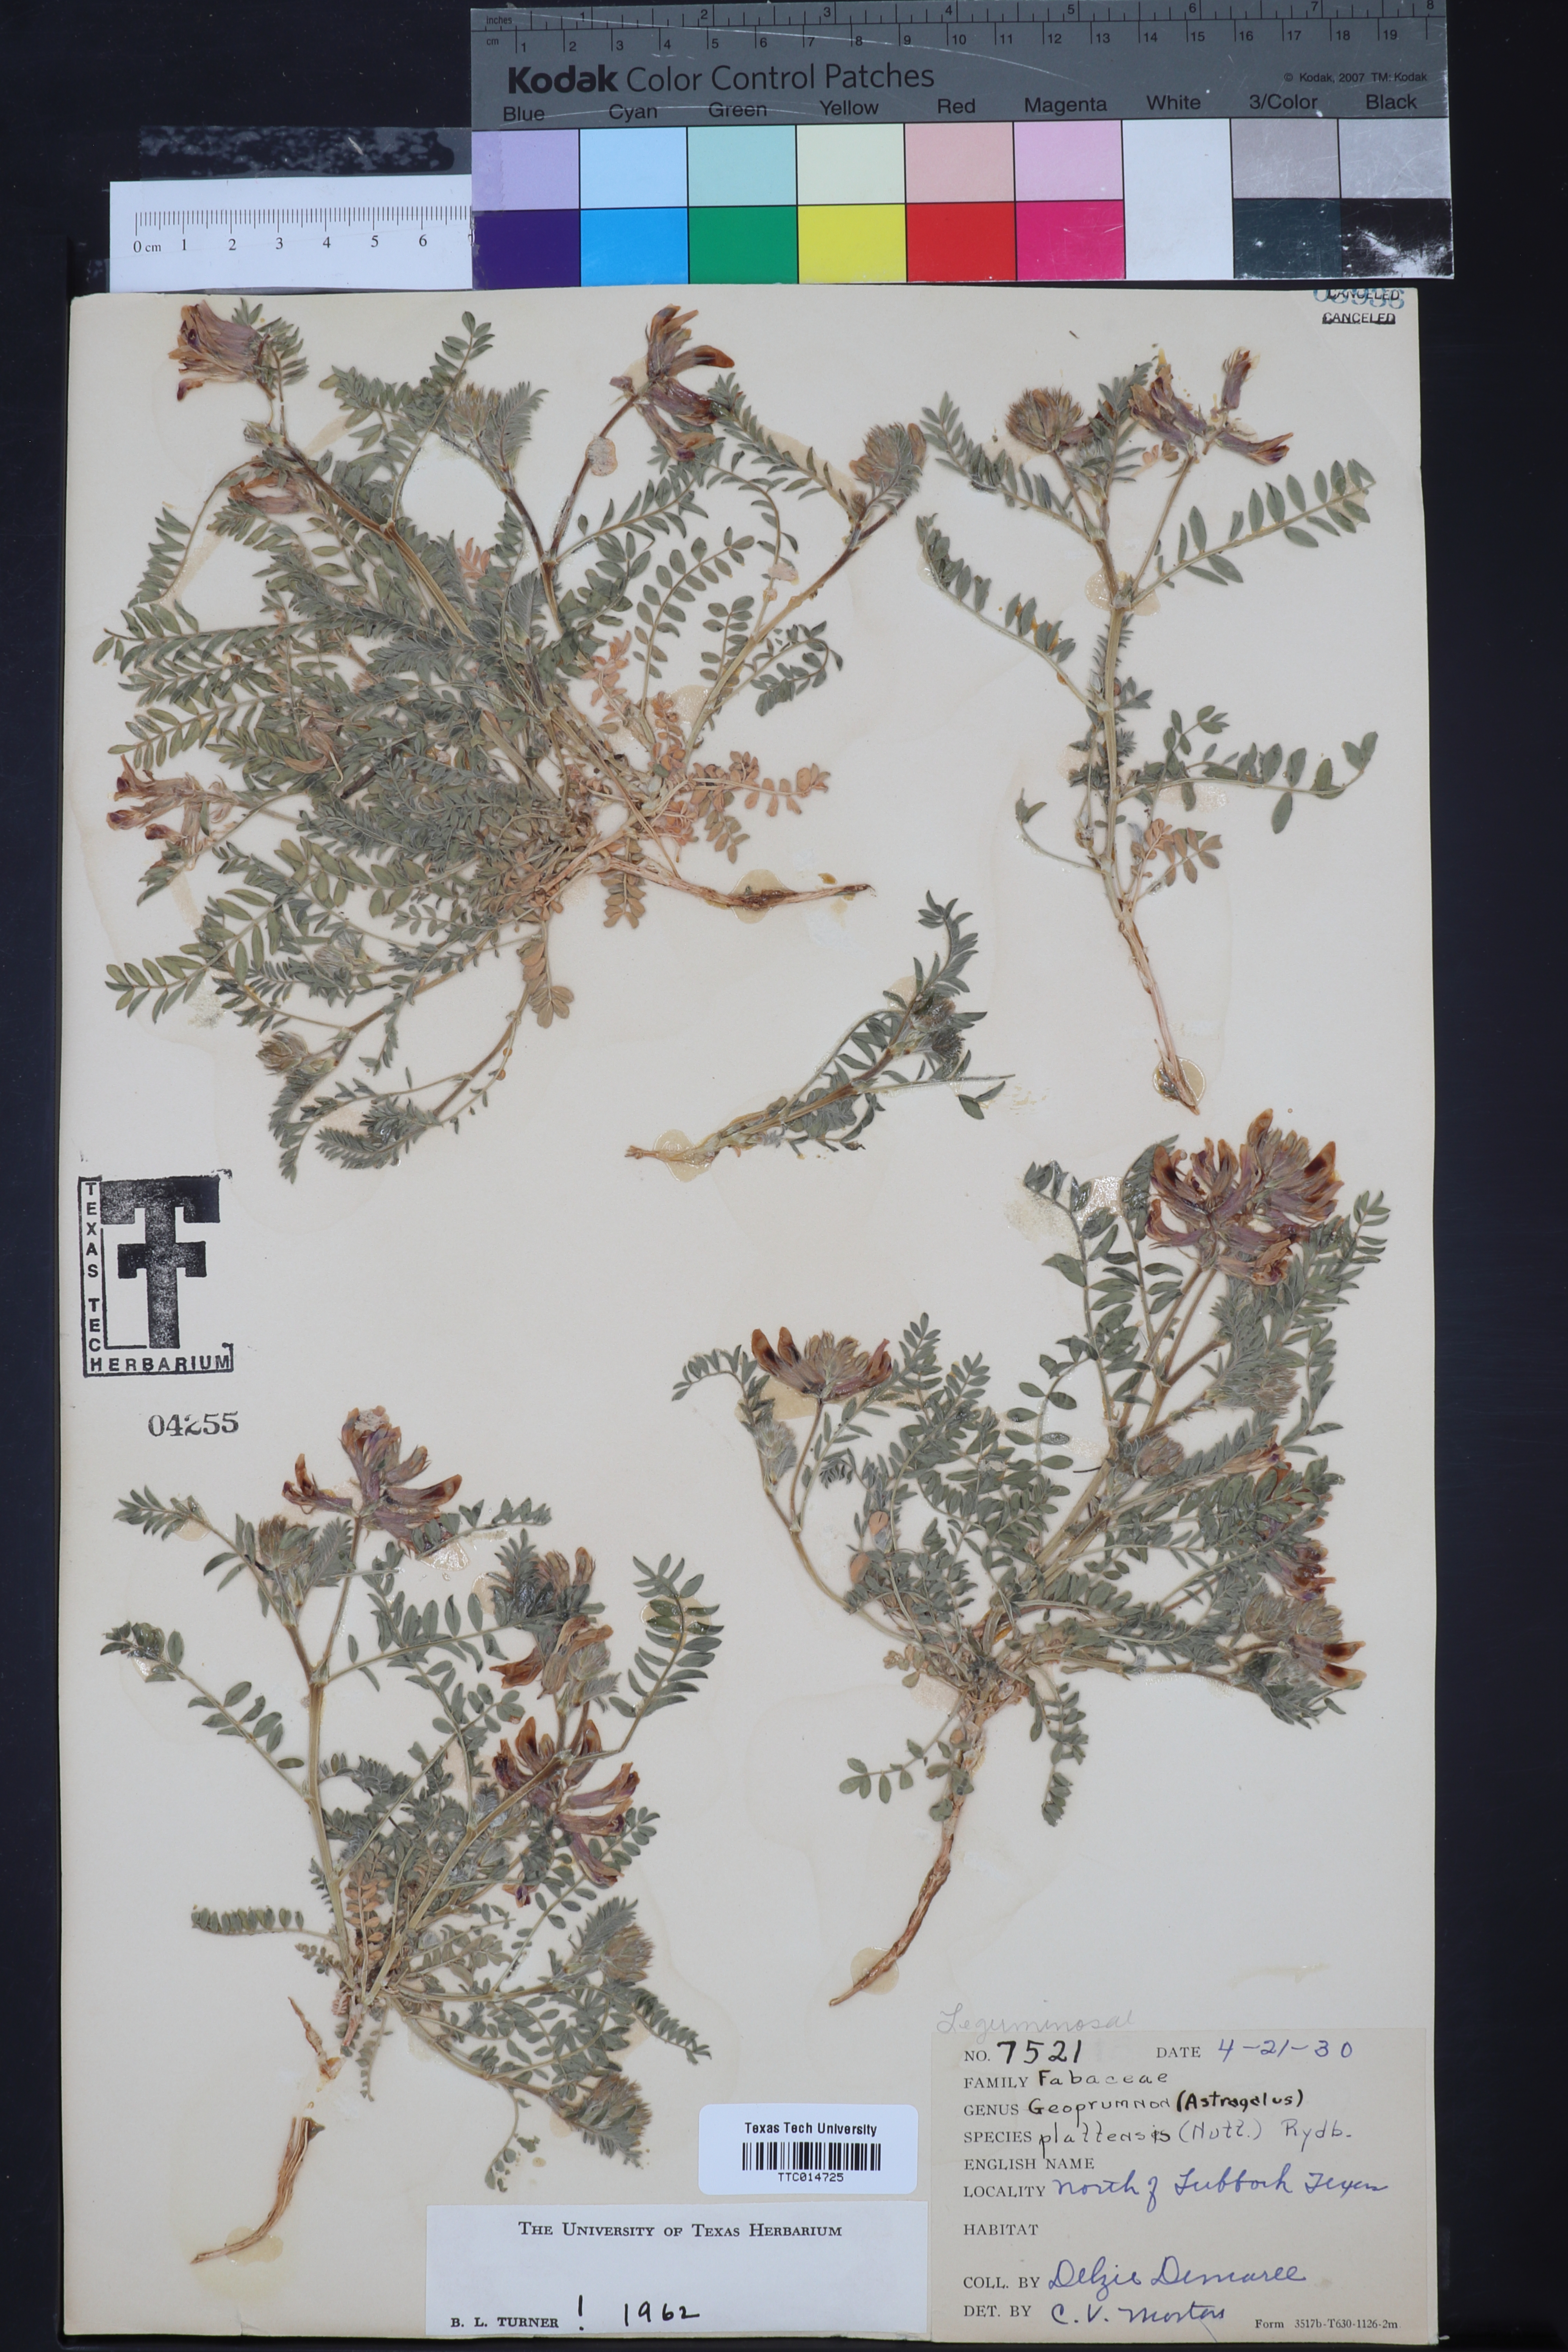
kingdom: Plantae
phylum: Tracheophyta
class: Magnoliopsida
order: Fabales
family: Fabaceae
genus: Astragalus
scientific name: Astragalus plattensis
